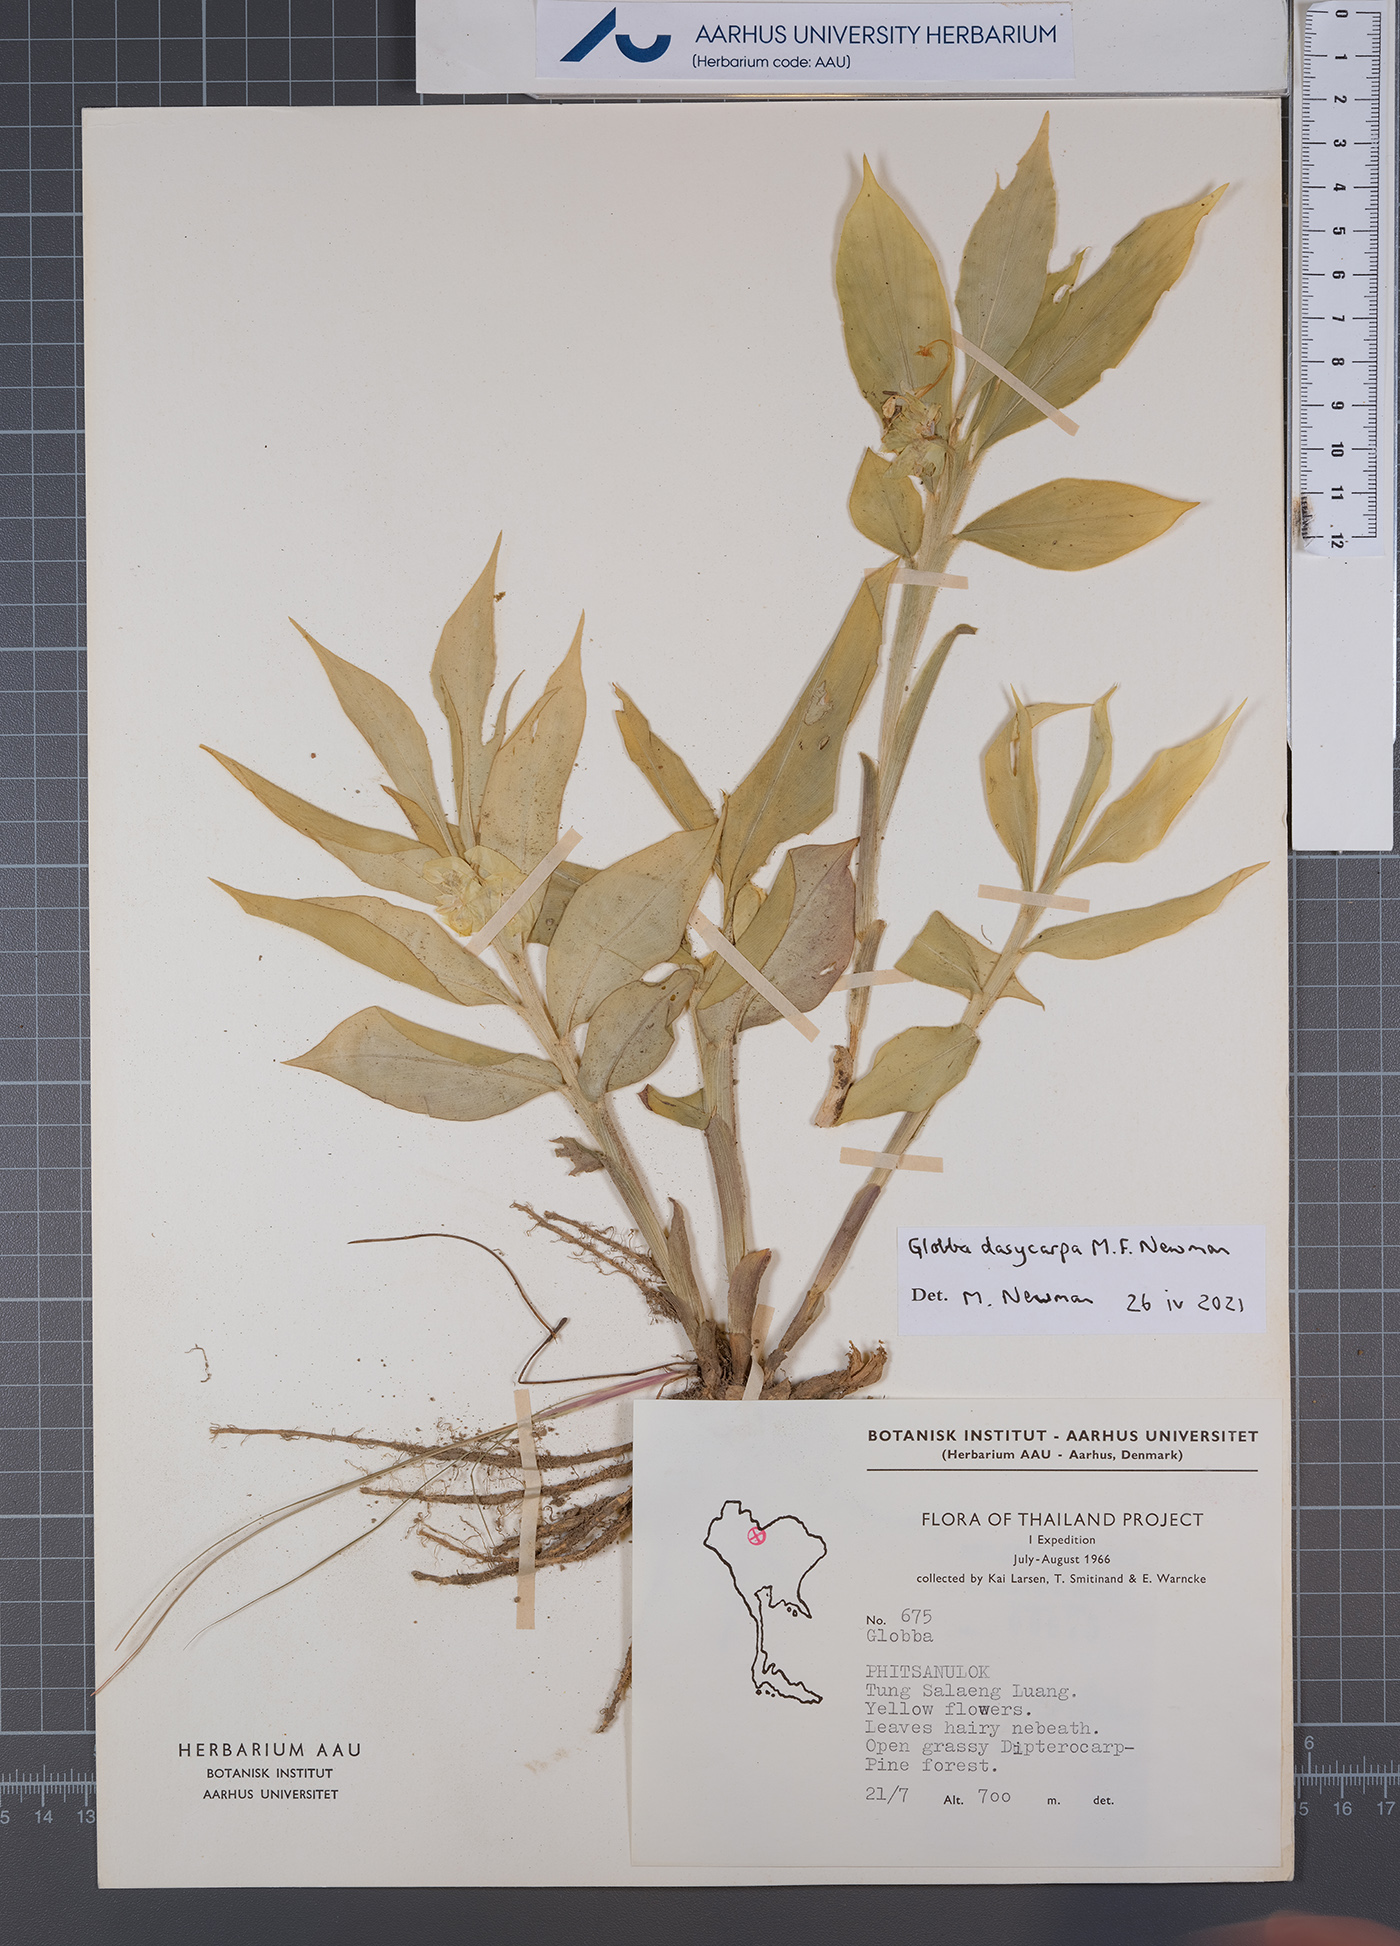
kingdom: Plantae
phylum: Tracheophyta
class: Liliopsida
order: Zingiberales
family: Zingiberaceae
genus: Globba
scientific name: Globba dasycarpa
